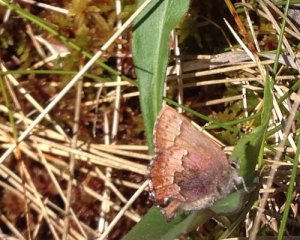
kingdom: Animalia
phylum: Arthropoda
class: Insecta
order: Lepidoptera
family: Lycaenidae
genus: Incisalia
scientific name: Incisalia irioides
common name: Brown Elfin
